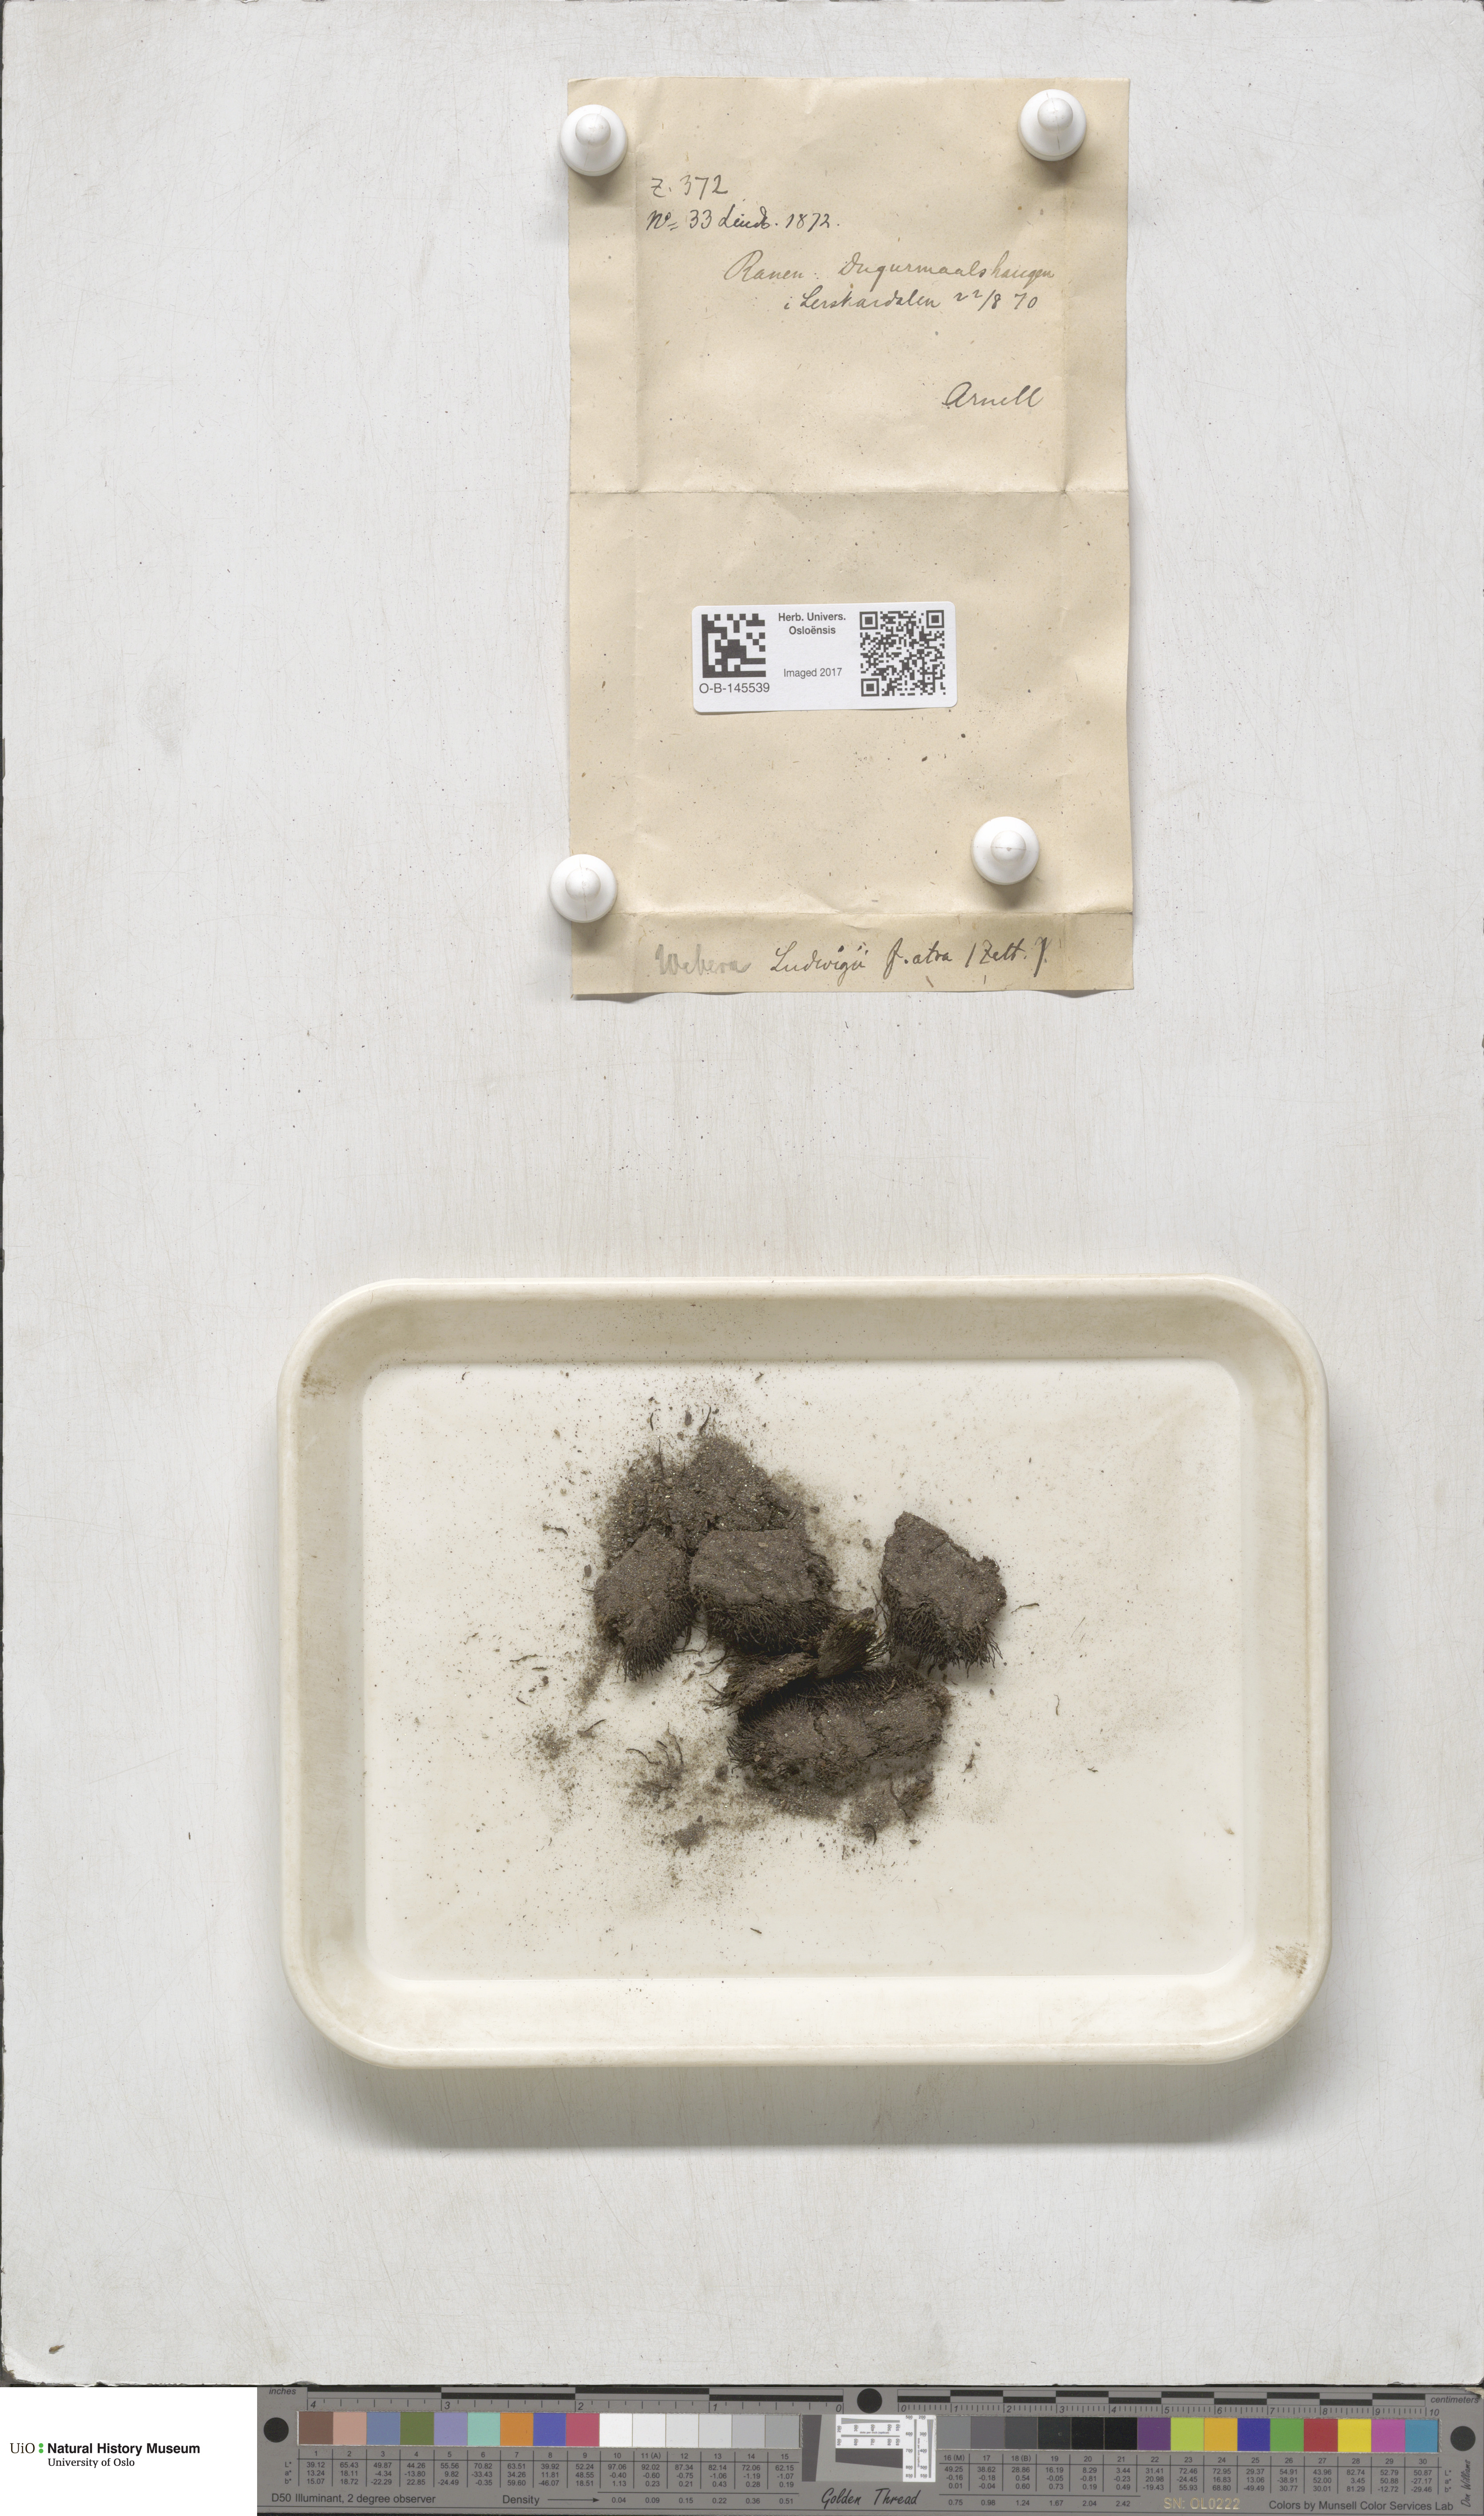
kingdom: Plantae
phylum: Bryophyta
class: Bryopsida
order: Bryales
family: Mniaceae
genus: Pohlia
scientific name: Pohlia ludwigii
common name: Ludwig's thread-moss
